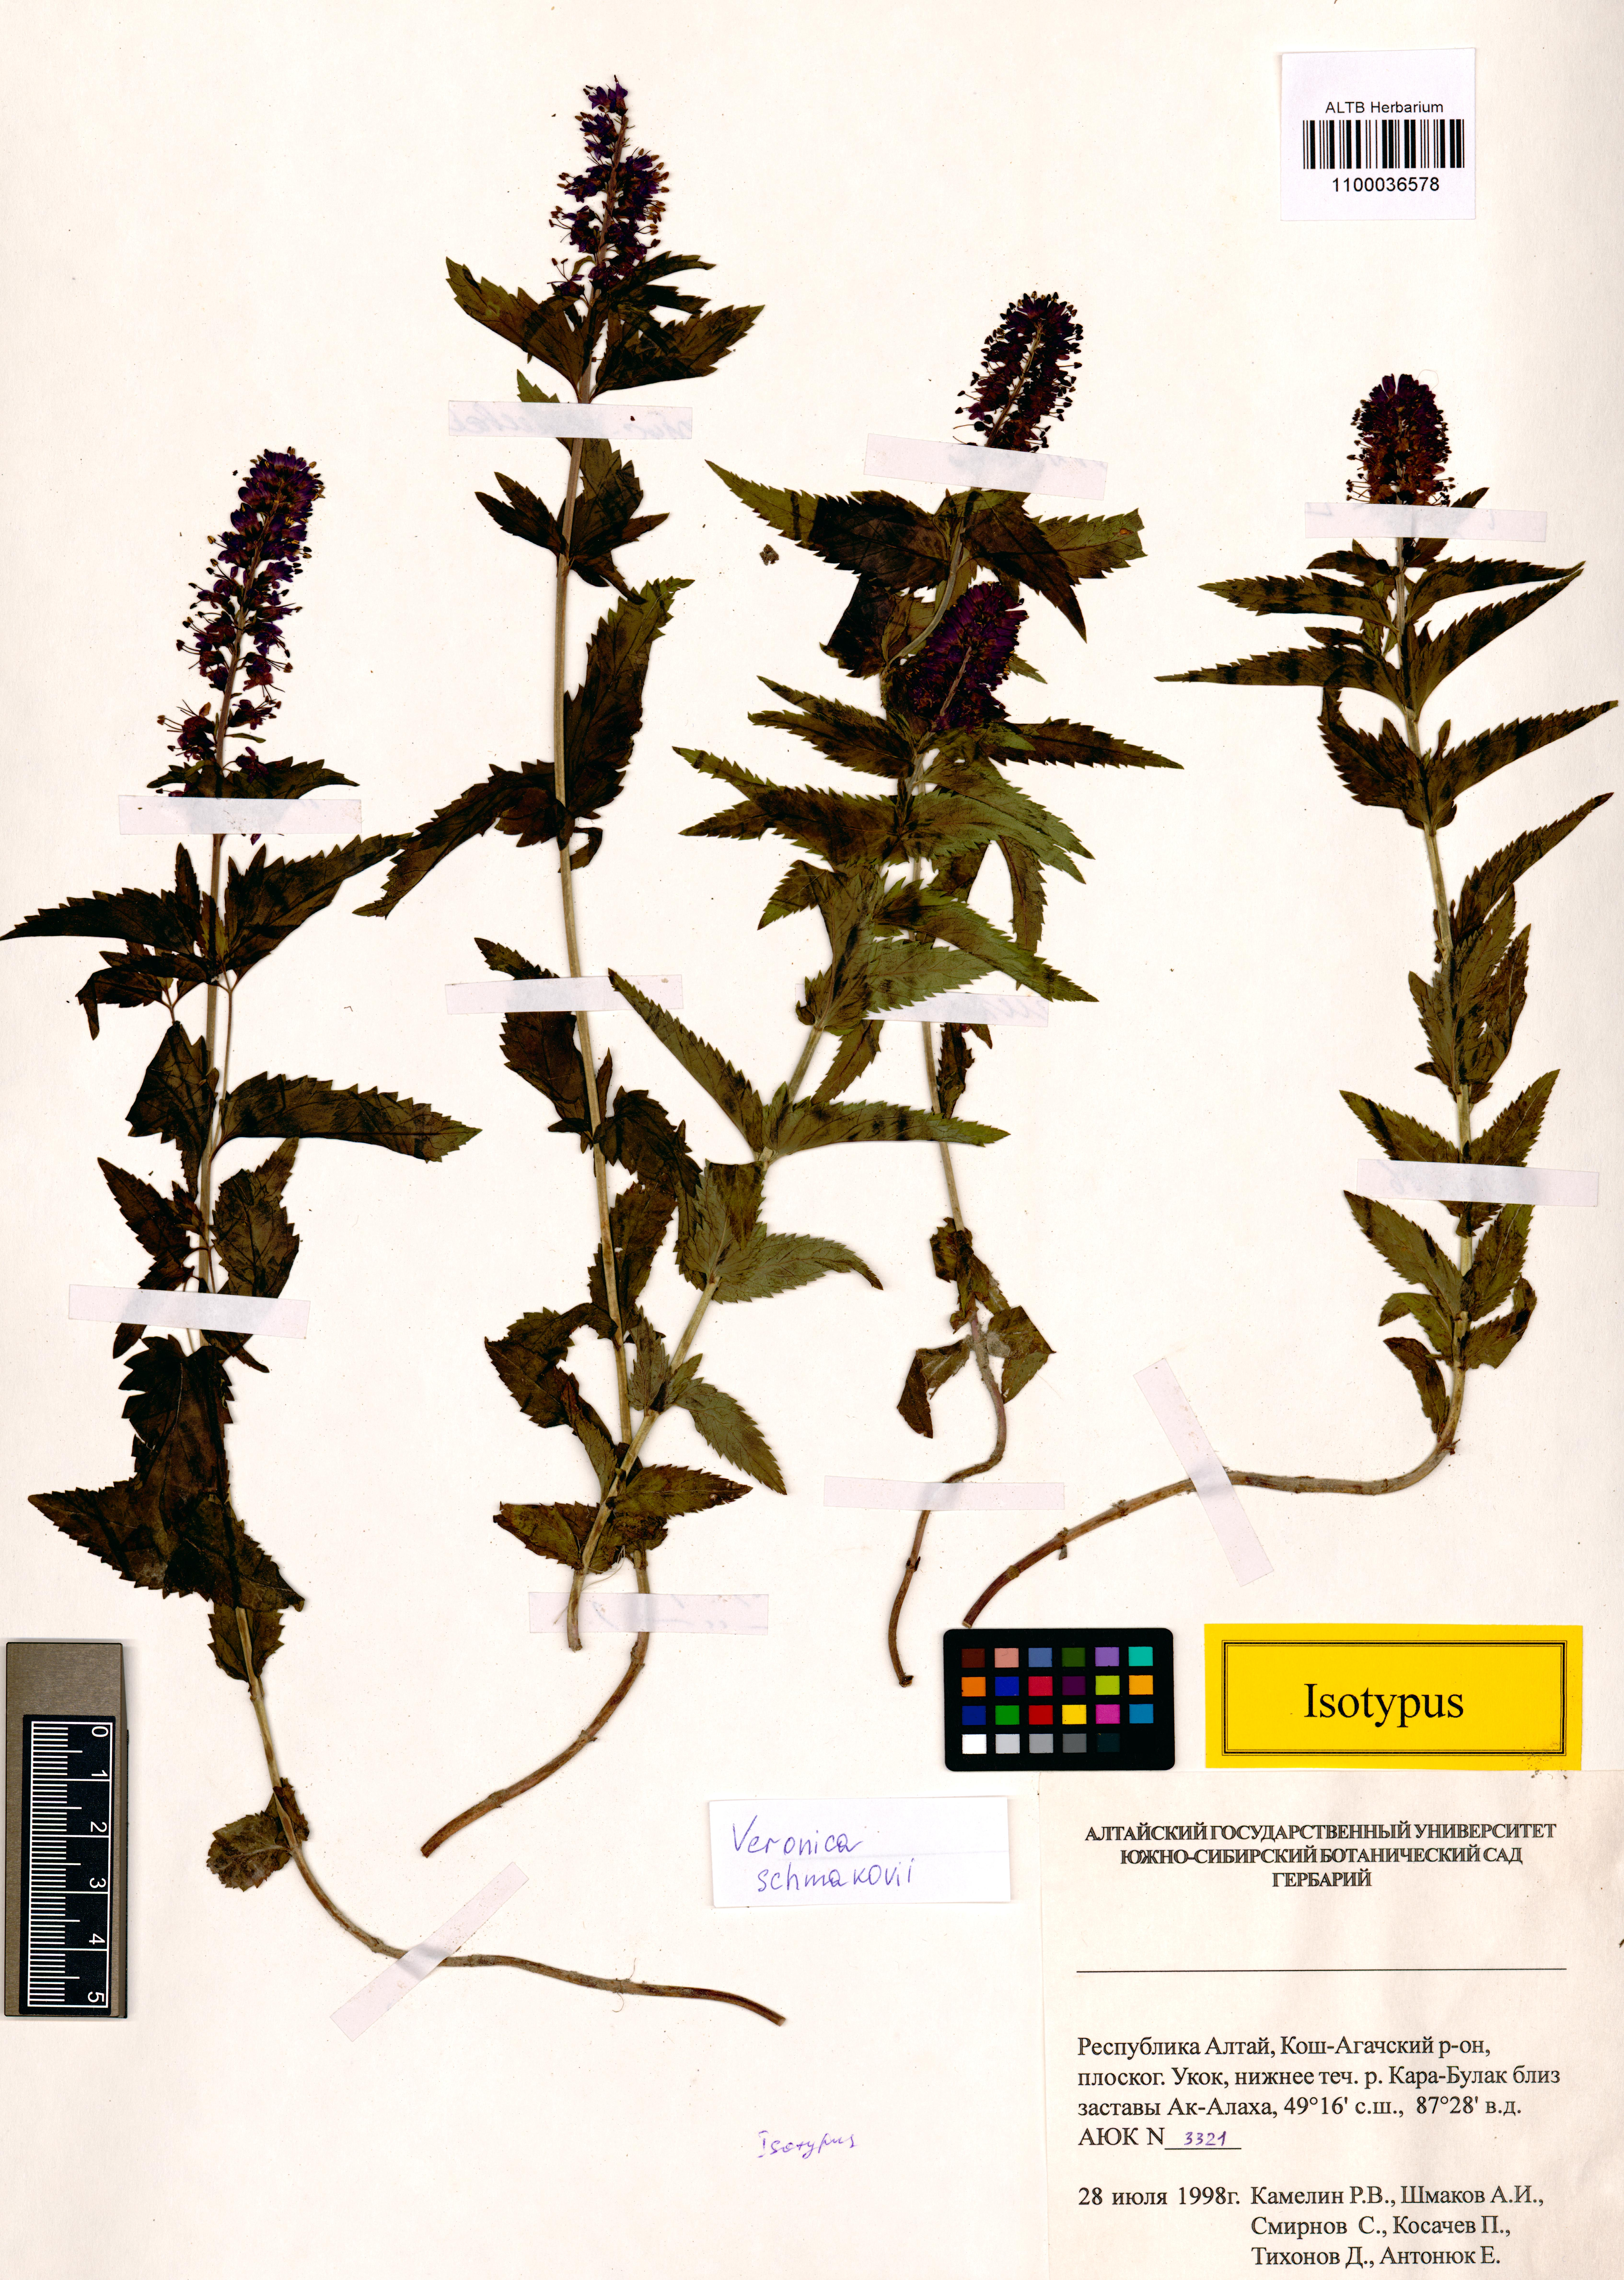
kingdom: Plantae
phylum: Tracheophyta
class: Magnoliopsida
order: Lamiales
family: Plantaginaceae
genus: Veronica
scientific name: Veronica schmakovii
